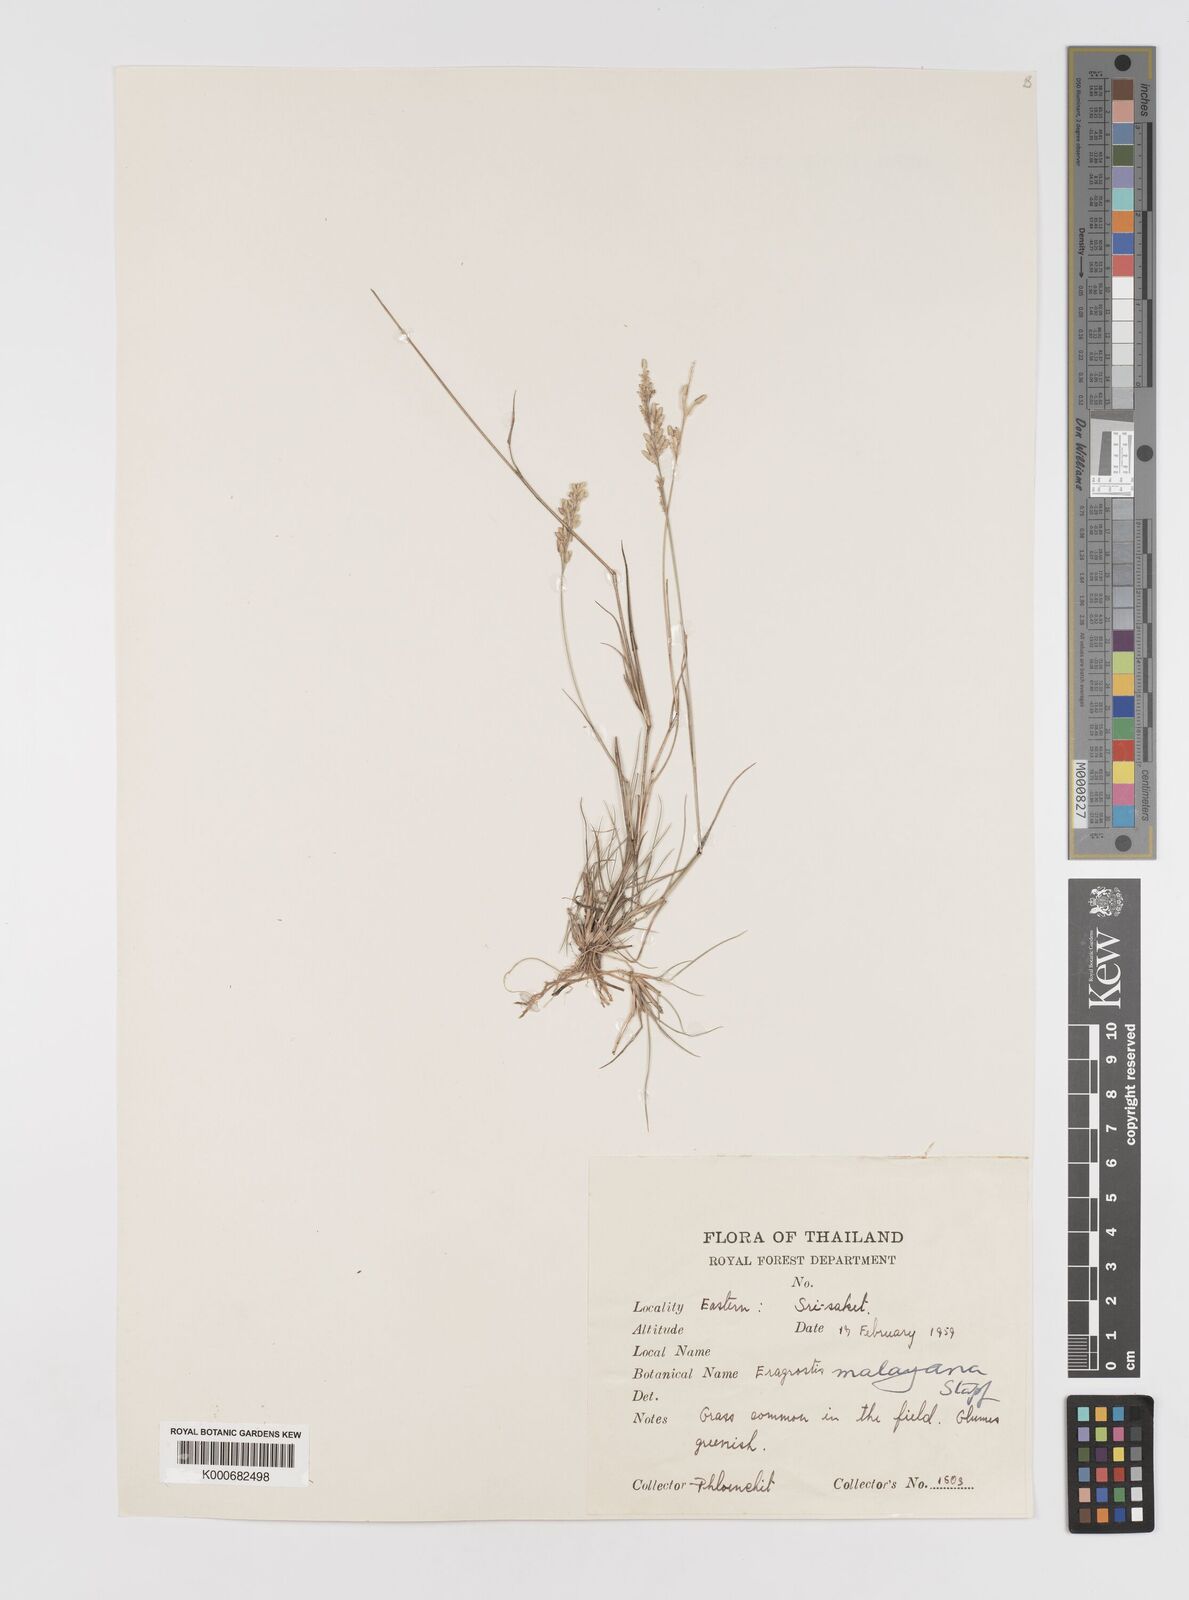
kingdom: Plantae
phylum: Tracheophyta
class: Liliopsida
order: Poales
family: Poaceae
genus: Eragrostis
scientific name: Eragrostis montana
